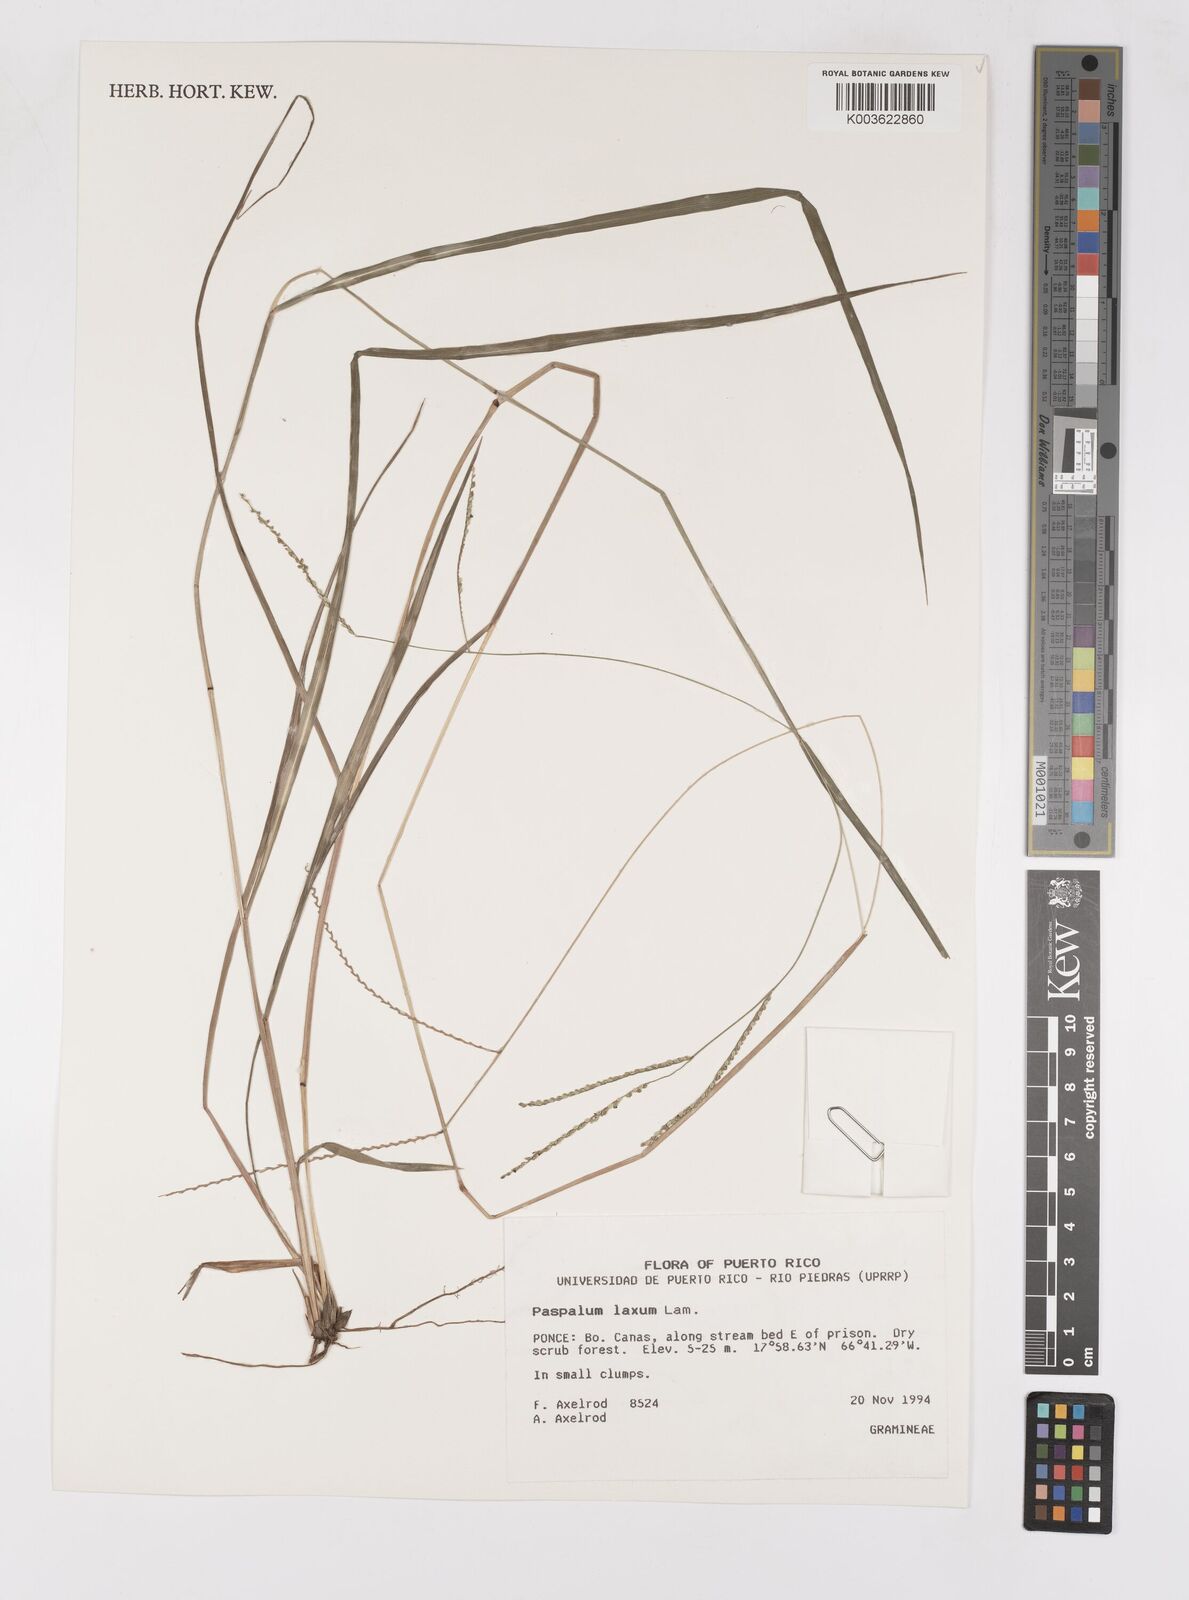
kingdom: Plantae
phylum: Tracheophyta
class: Liliopsida
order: Poales
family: Poaceae
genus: Paspalum
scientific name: Paspalum laxum
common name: Coconut paspalum
